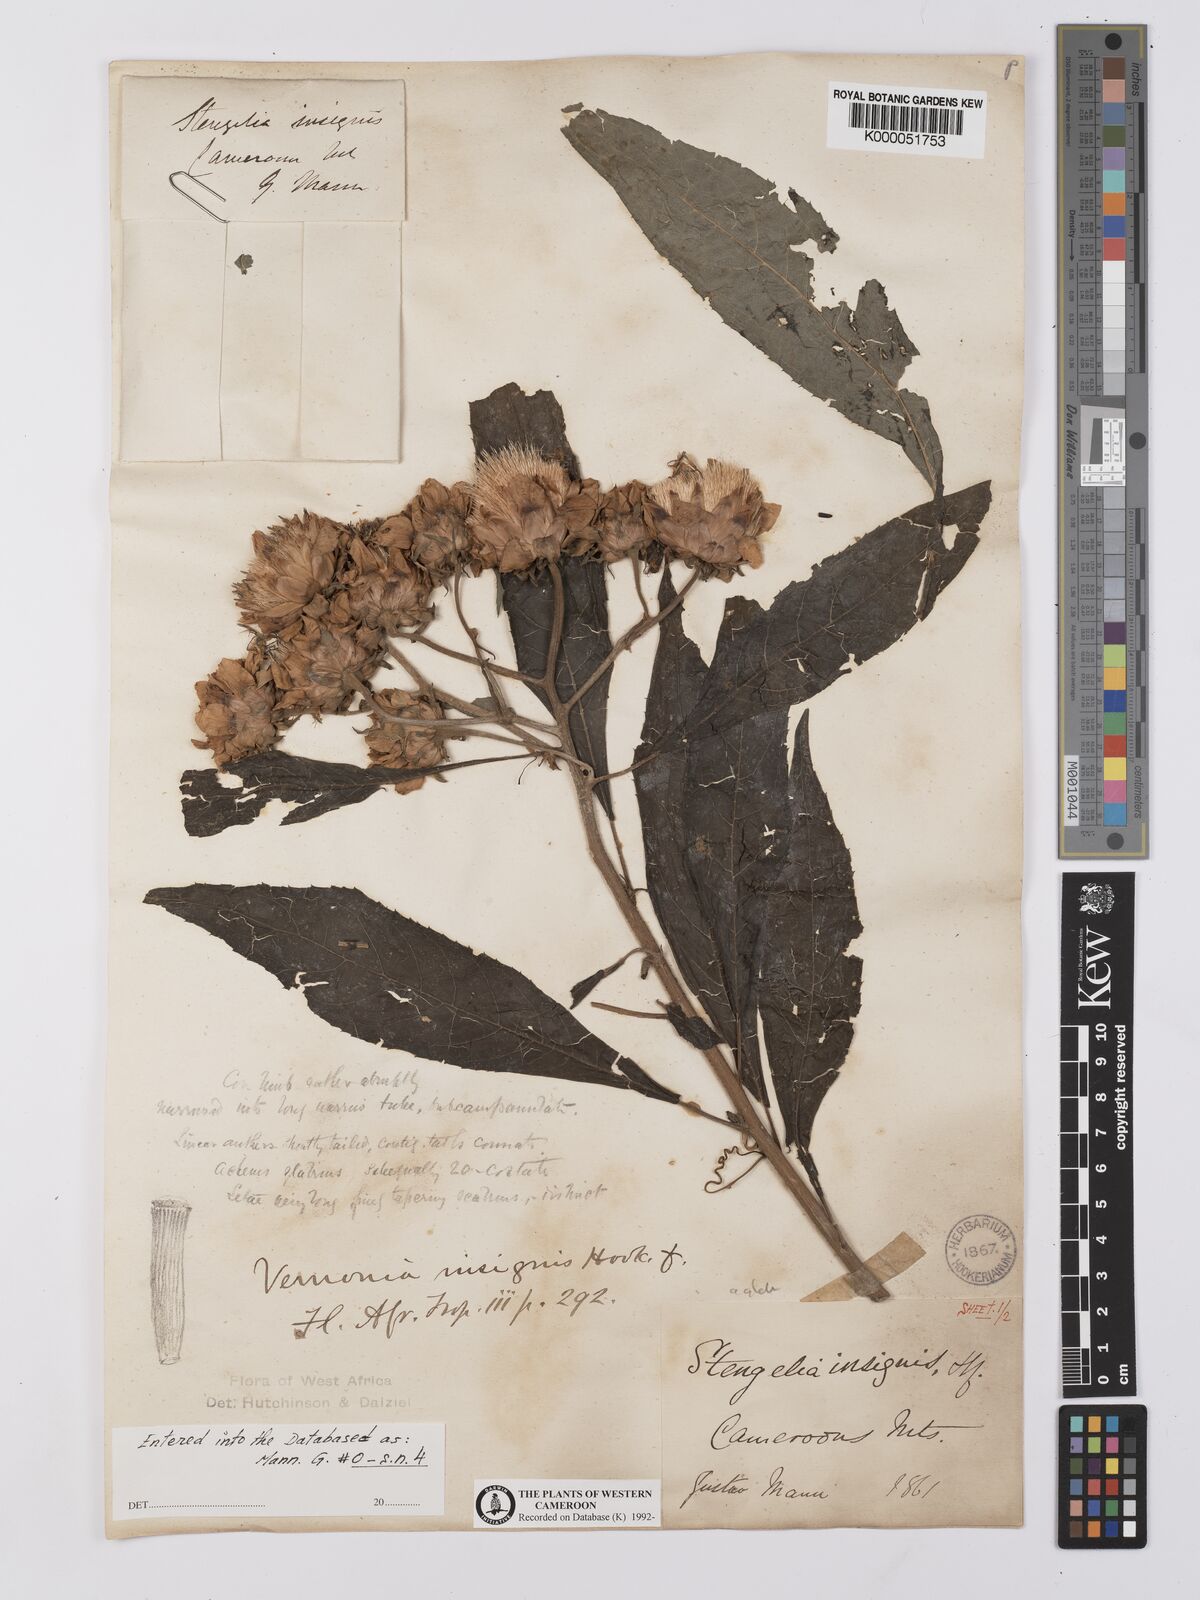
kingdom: Plantae
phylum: Tracheophyta
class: Magnoliopsida
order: Asterales
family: Asteraceae
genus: Baccharoides
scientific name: Baccharoides hymenolepis
